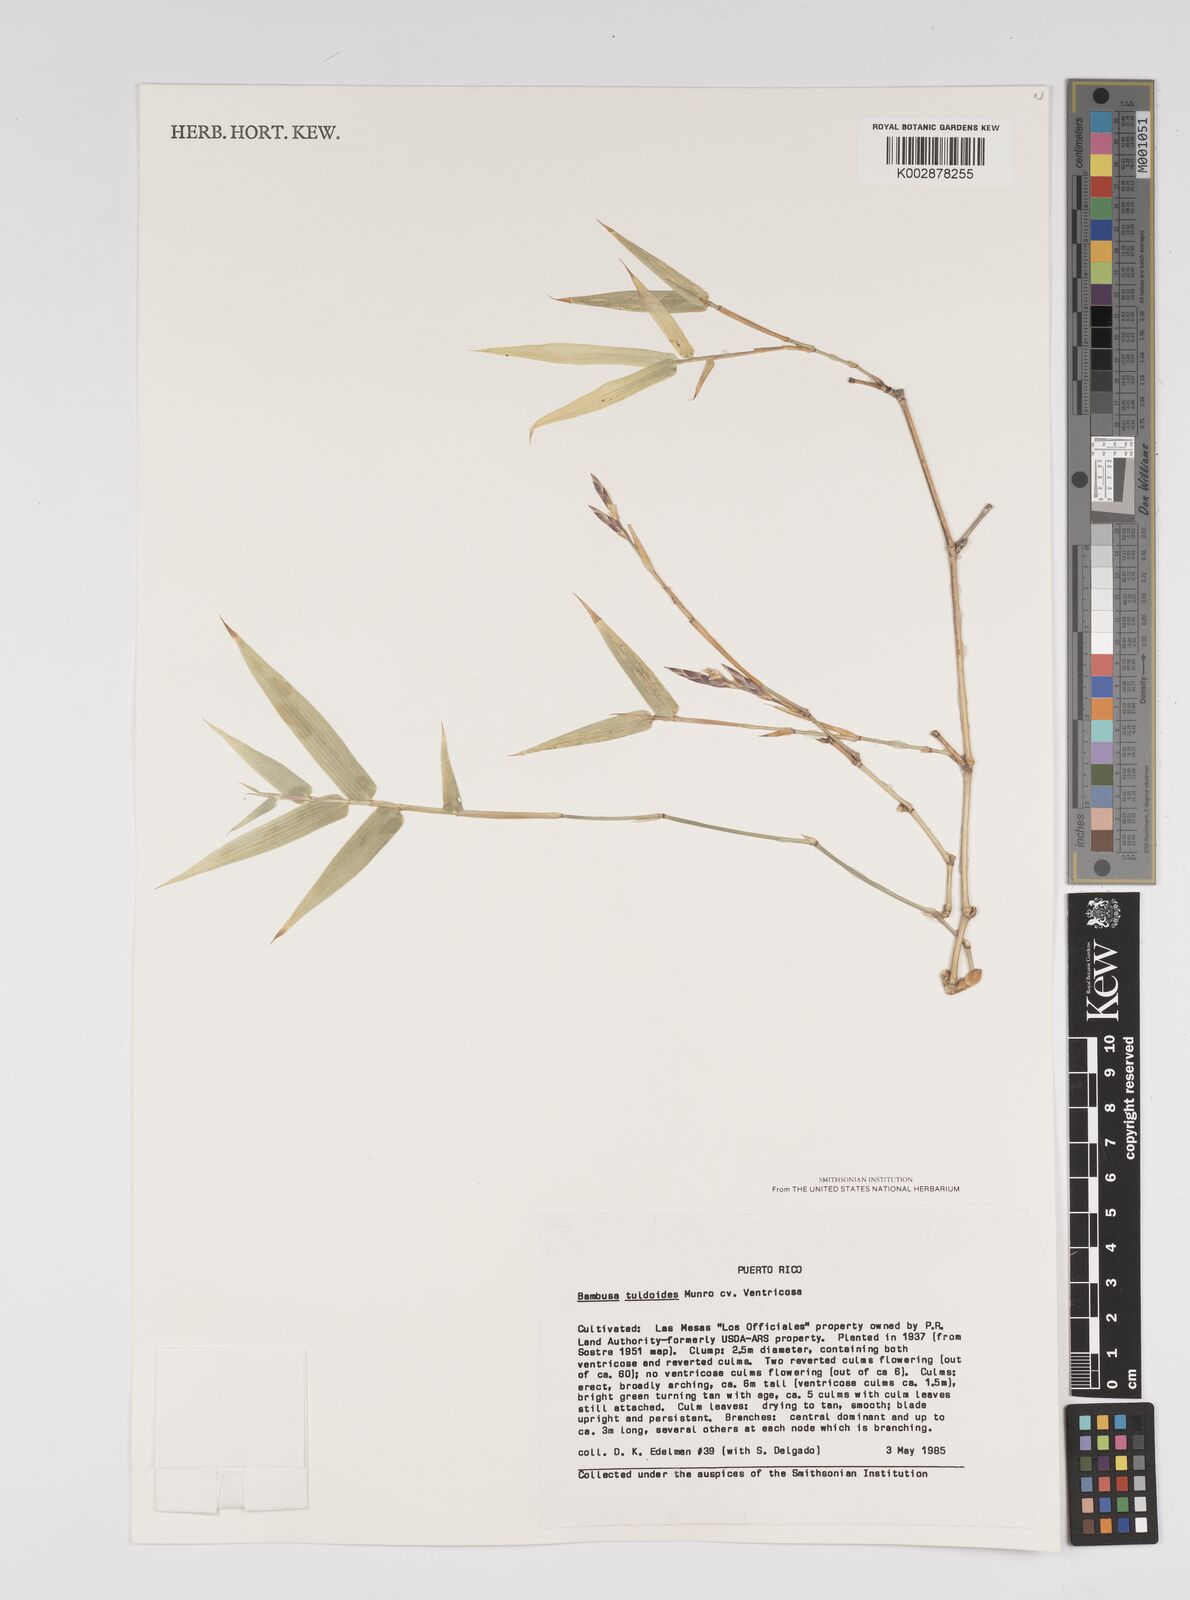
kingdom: Plantae
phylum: Tracheophyta
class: Liliopsida
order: Poales
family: Poaceae
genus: Bambusa
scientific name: Bambusa tuldoides
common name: Verdant bamboo
